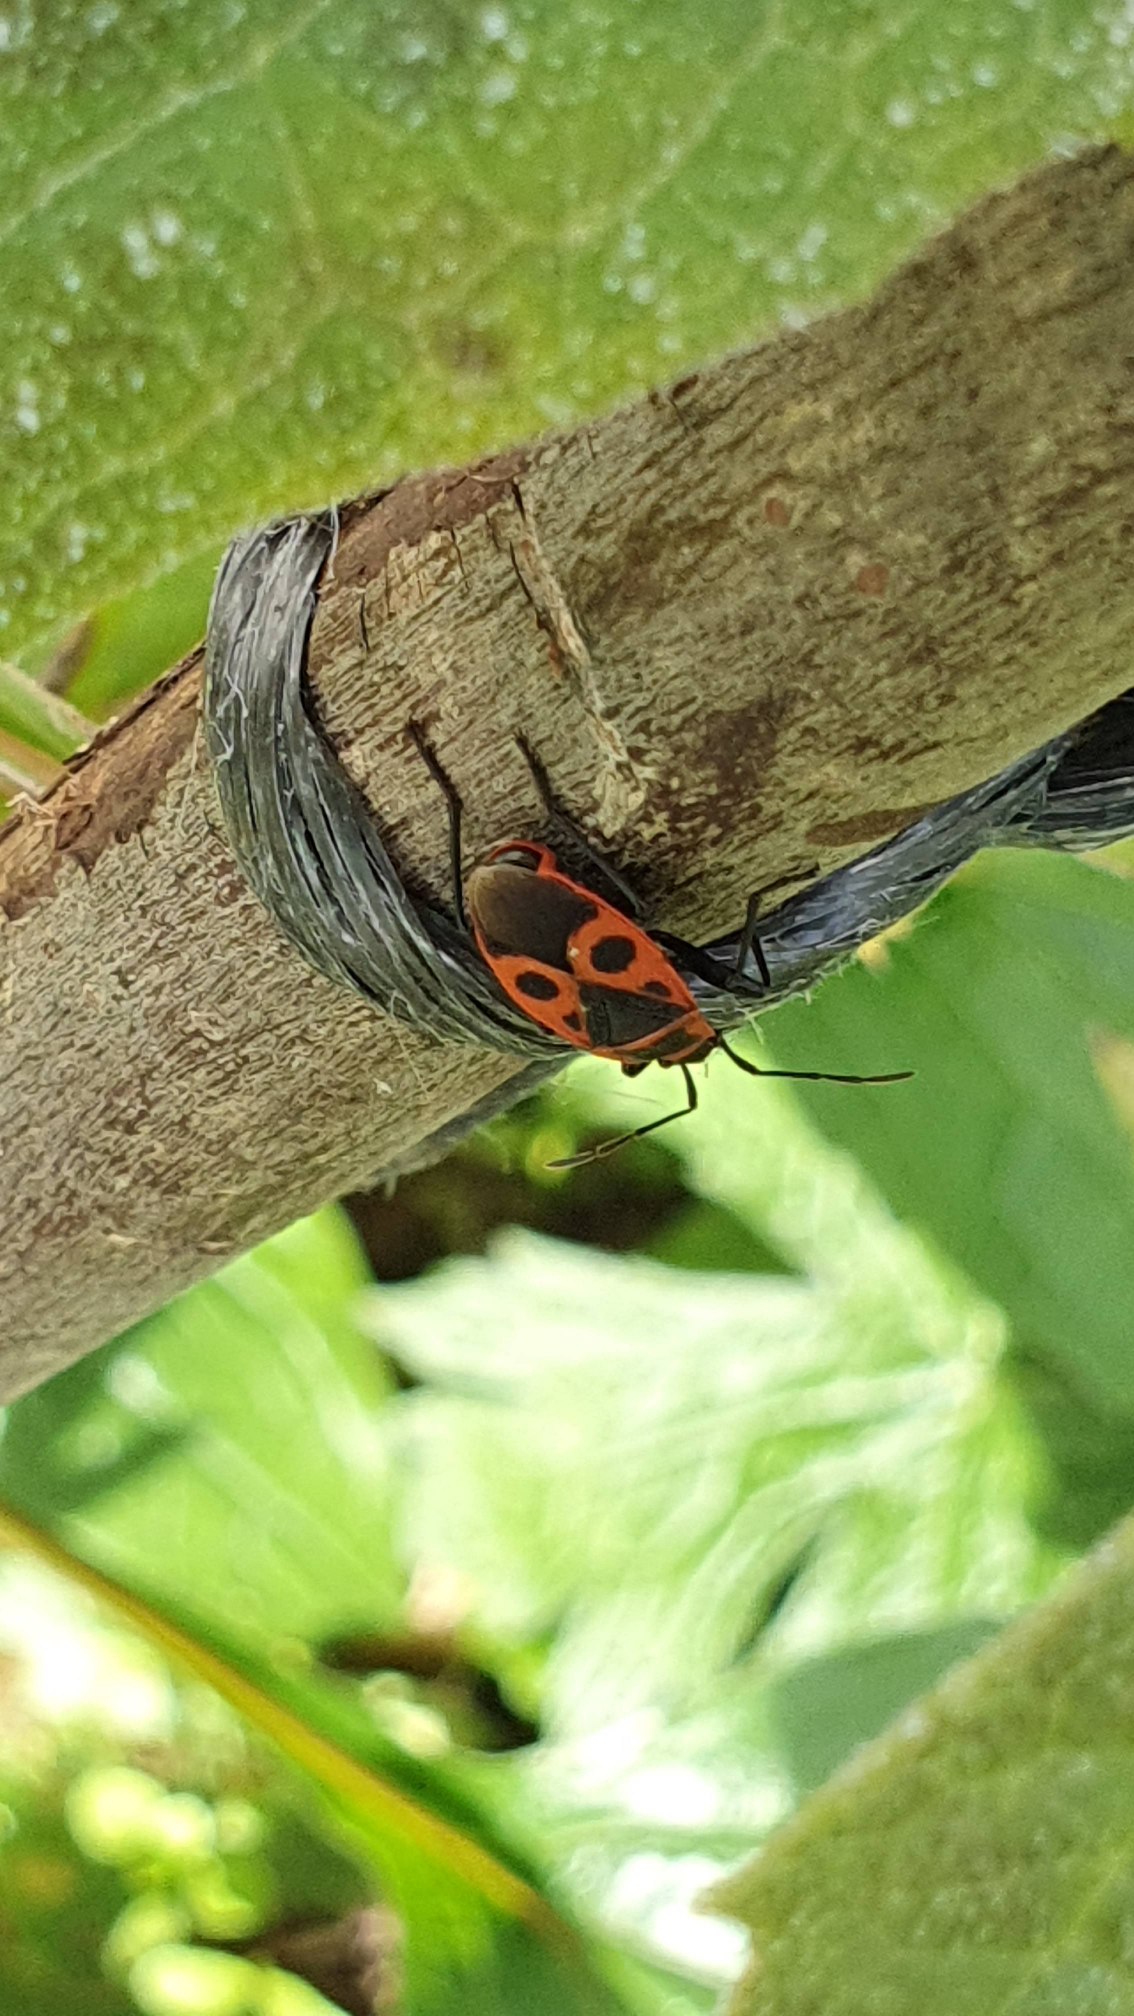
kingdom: Animalia
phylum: Arthropoda
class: Insecta
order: Hemiptera
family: Pyrrhocoridae
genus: Pyrrhocoris
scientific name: Pyrrhocoris apterus
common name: Ildtæge
